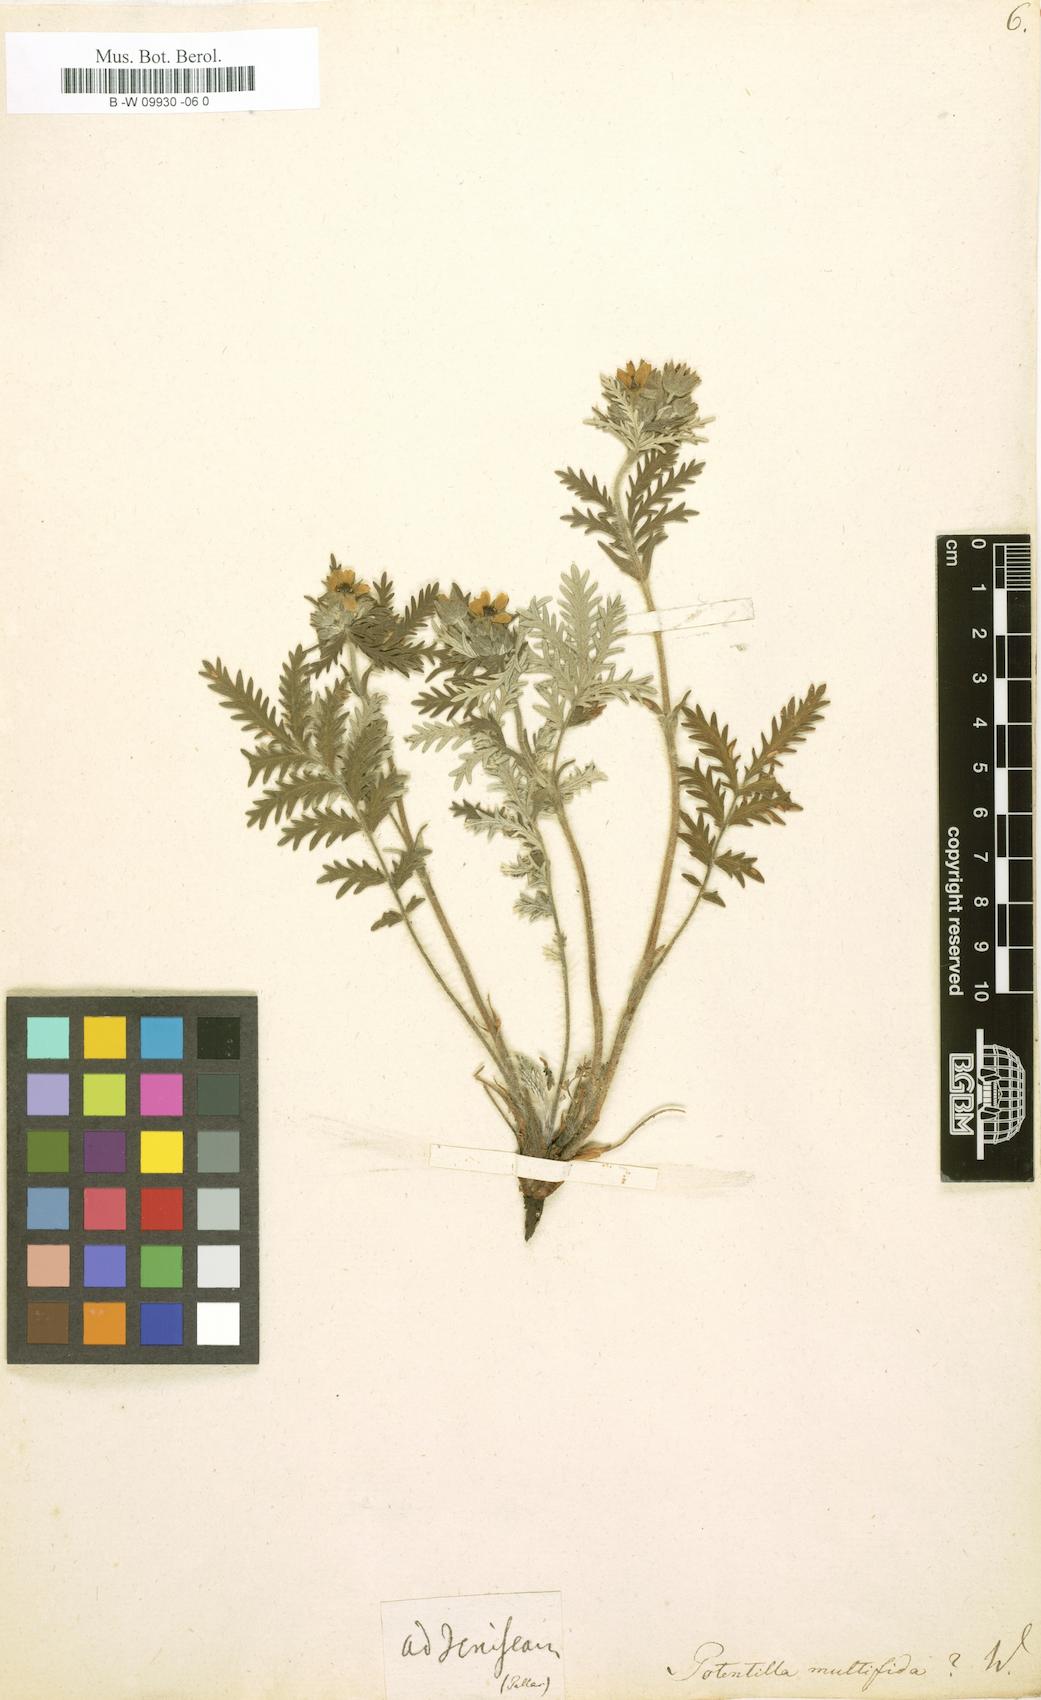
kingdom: Plantae
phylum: Tracheophyta
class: Magnoliopsida
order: Rosales
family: Rosaceae
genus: Potentilla
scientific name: Potentilla multifida
